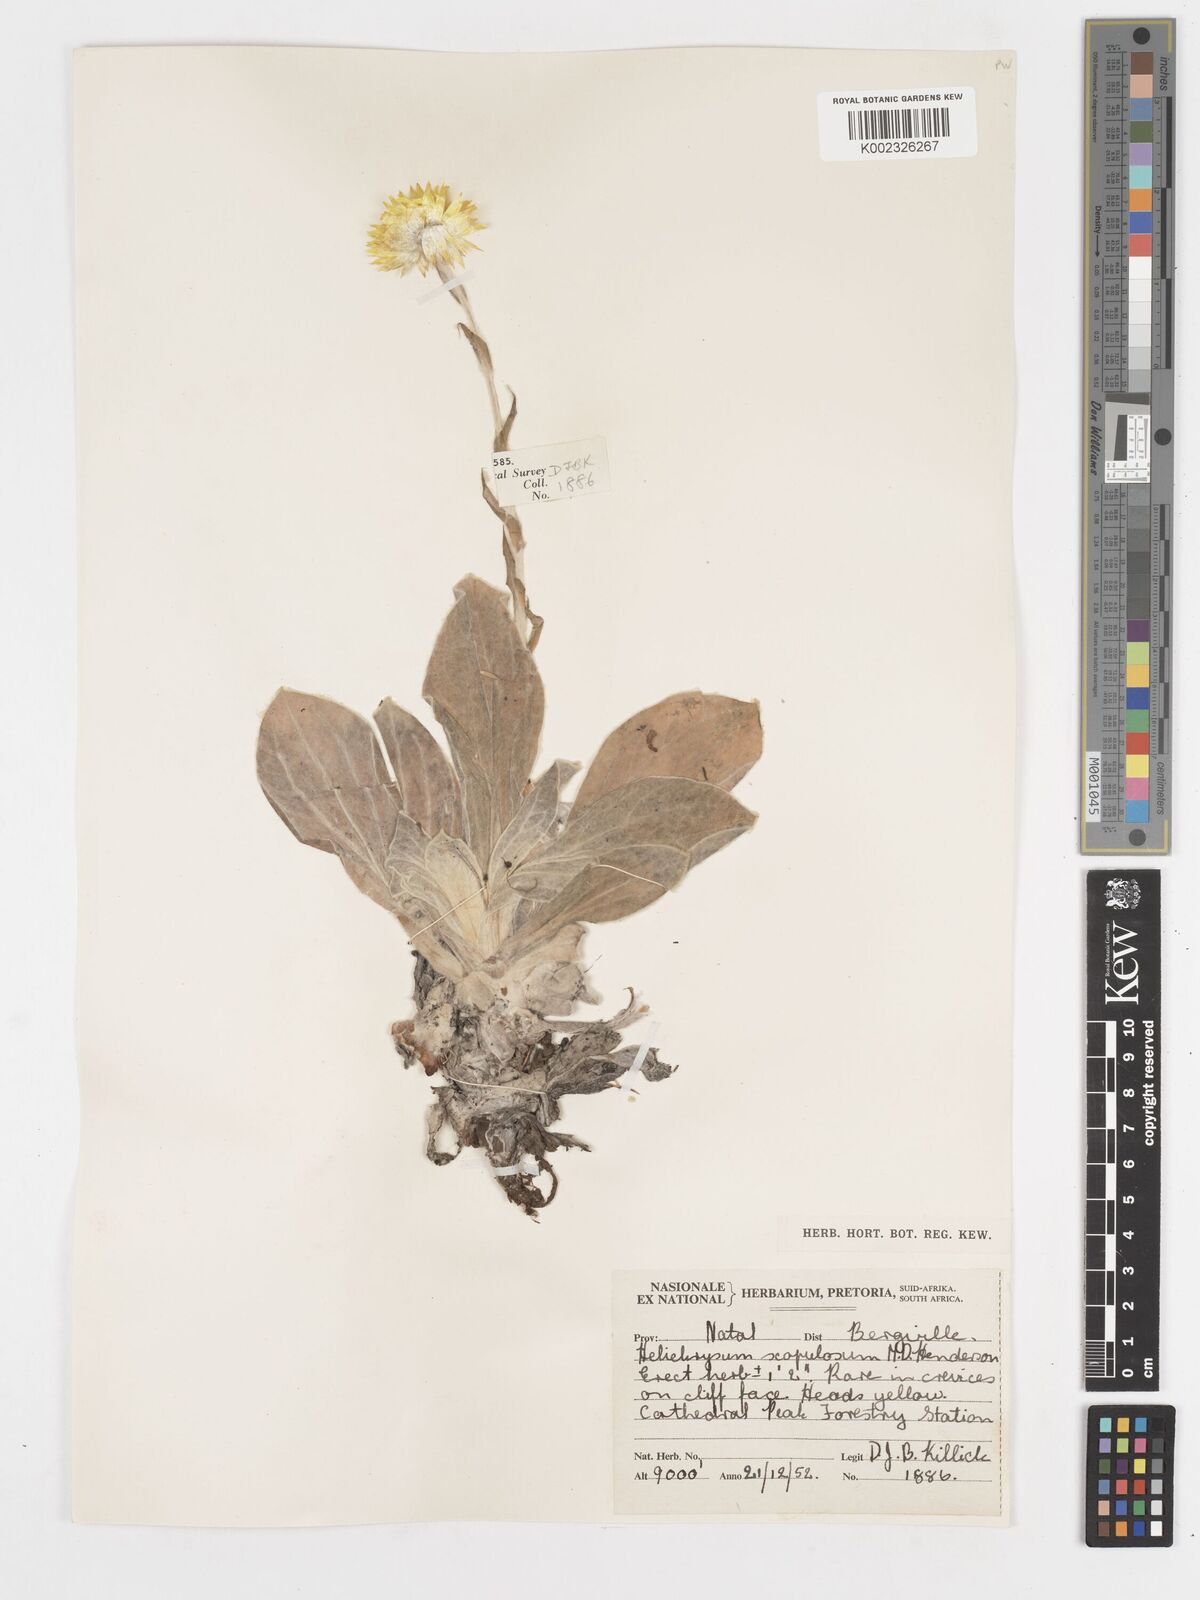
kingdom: Plantae
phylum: Tracheophyta
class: Magnoliopsida
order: Asterales
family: Asteraceae
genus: Helichrysum
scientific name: Helichrysum aureum
